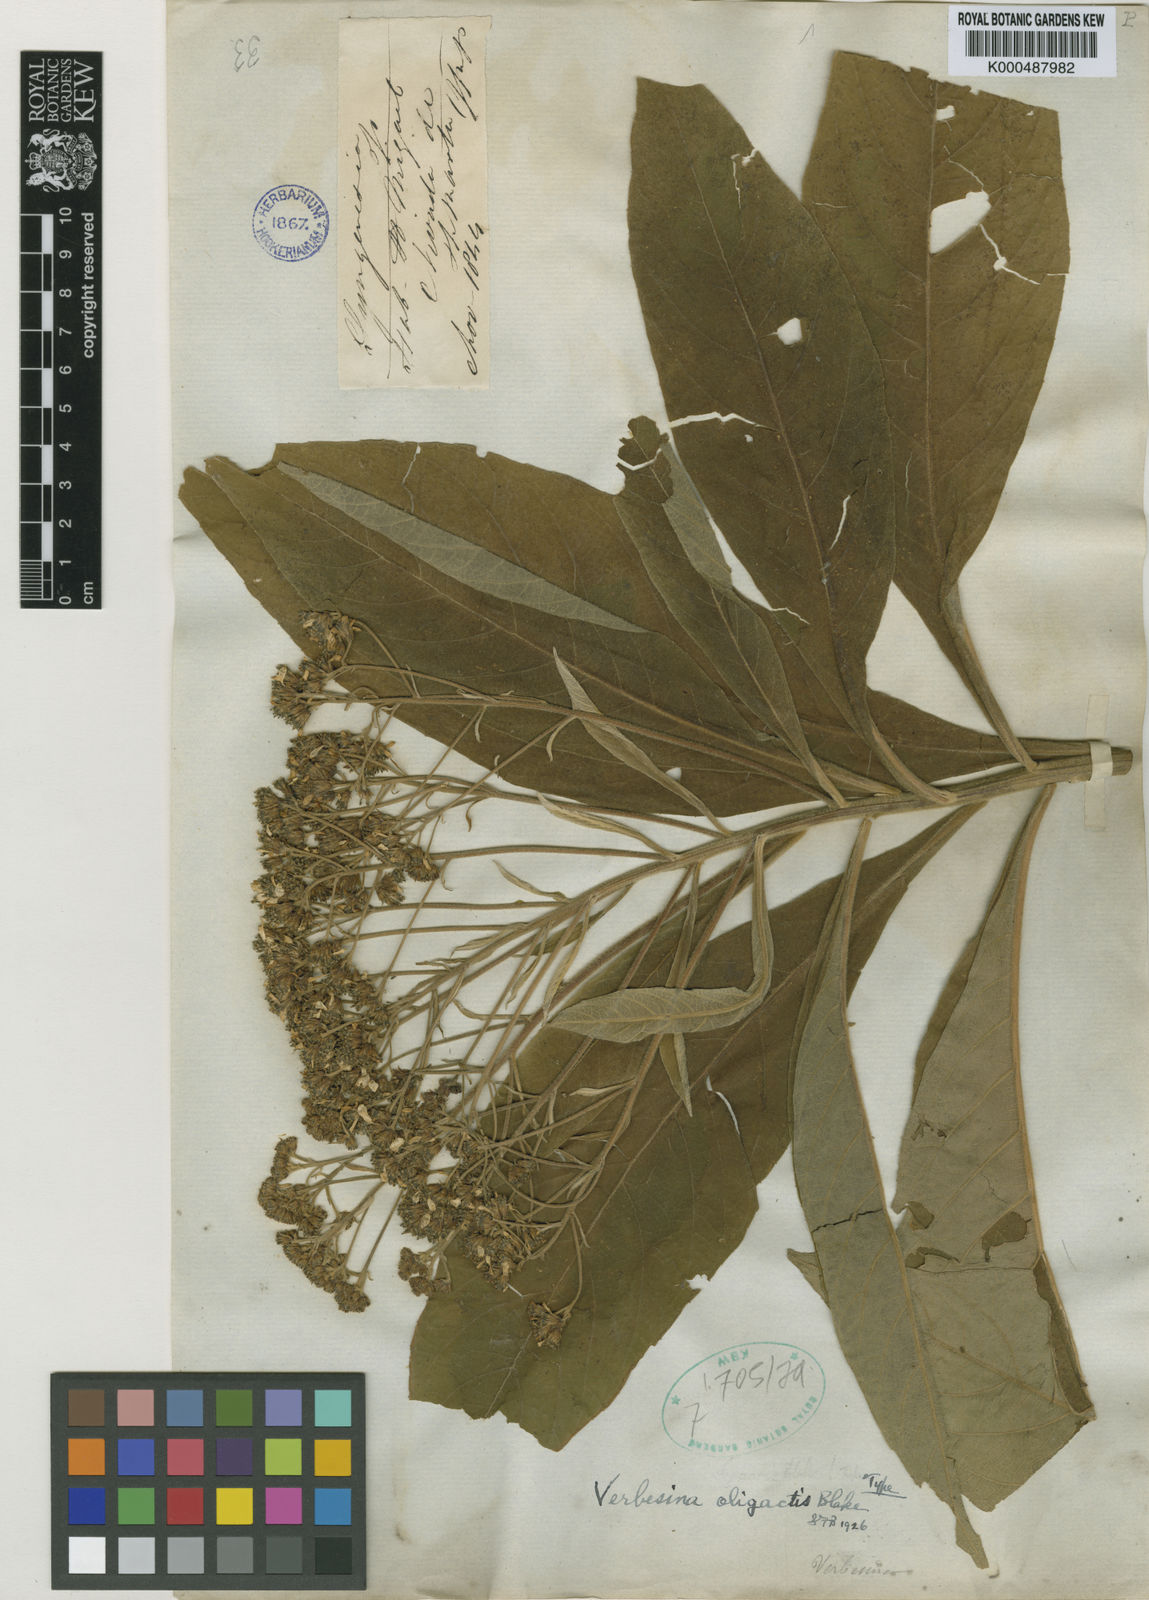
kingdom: Plantae
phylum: Tracheophyta
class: Magnoliopsida
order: Asterales
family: Asteraceae
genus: Verbesina
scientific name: Verbesina oligactis
